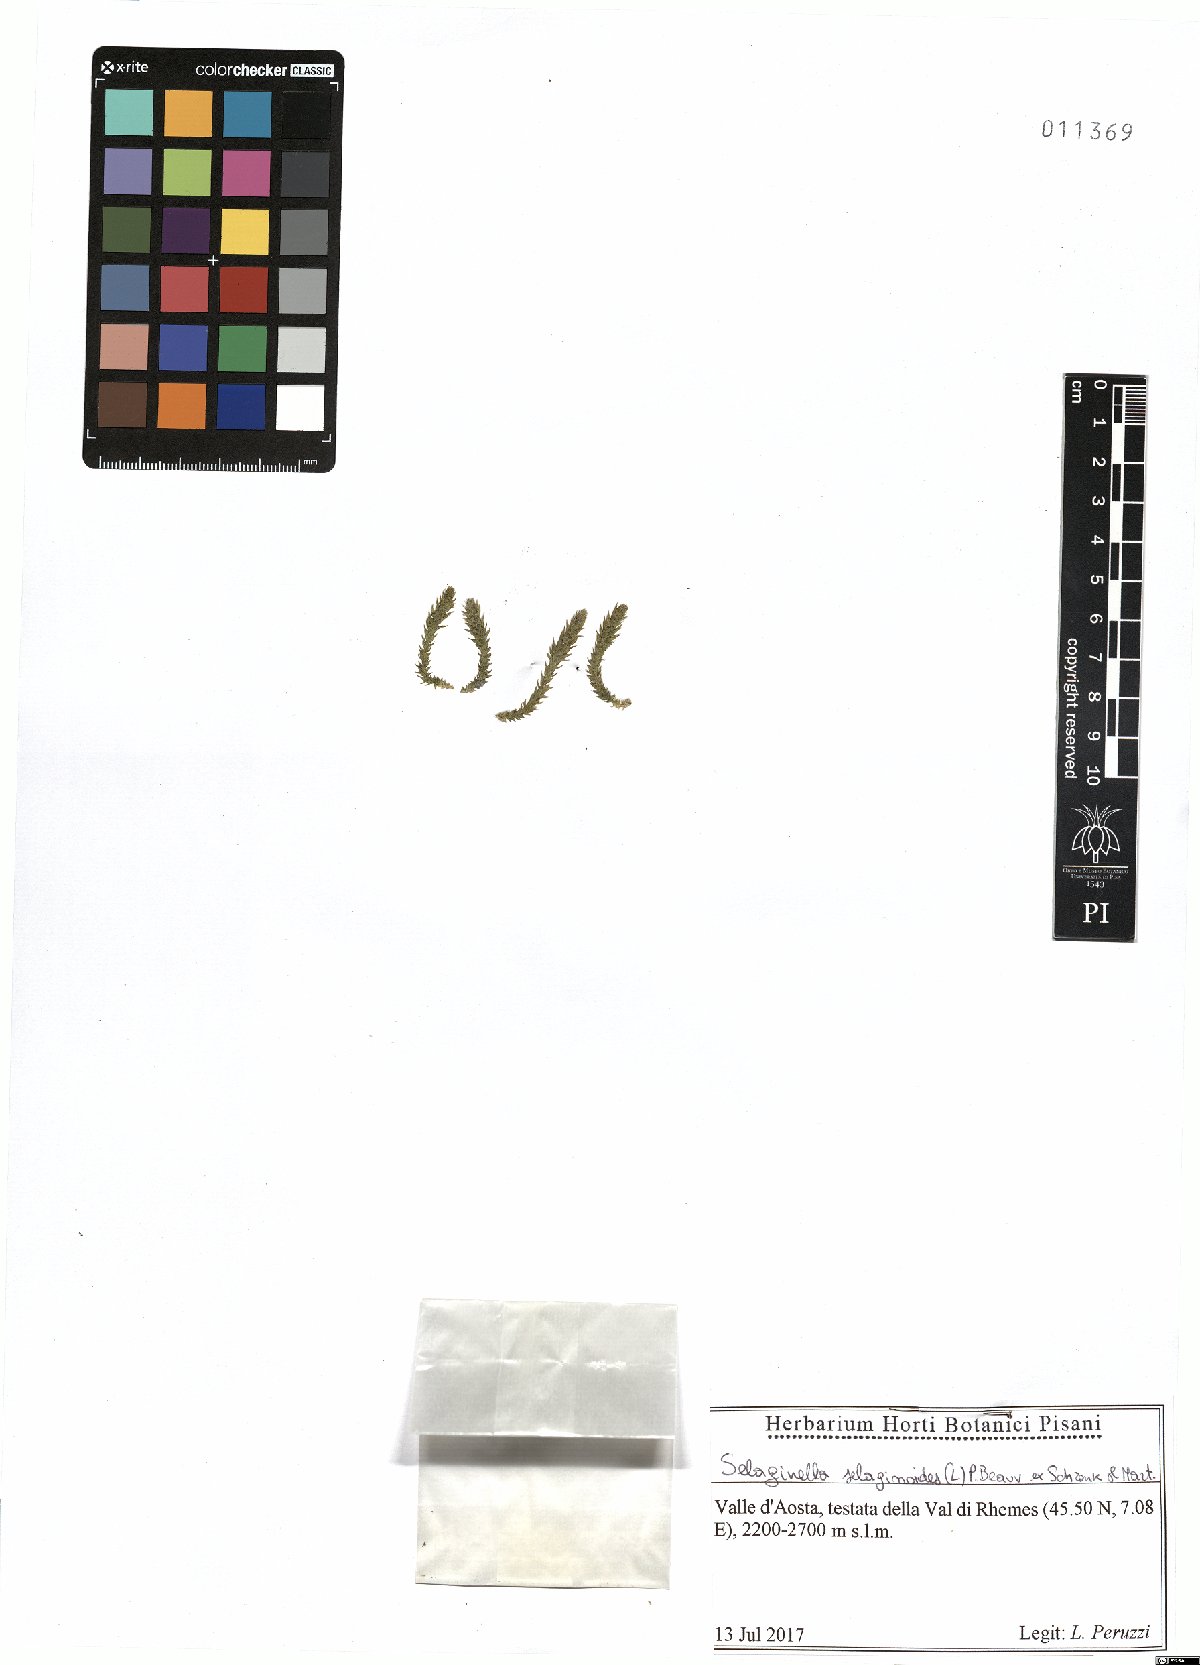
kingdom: Plantae
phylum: Tracheophyta
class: Lycopodiopsida
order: Selaginellales
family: Selaginellaceae
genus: Selaginella
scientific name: Selaginella selaginoides
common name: Prickly mountain-moss
